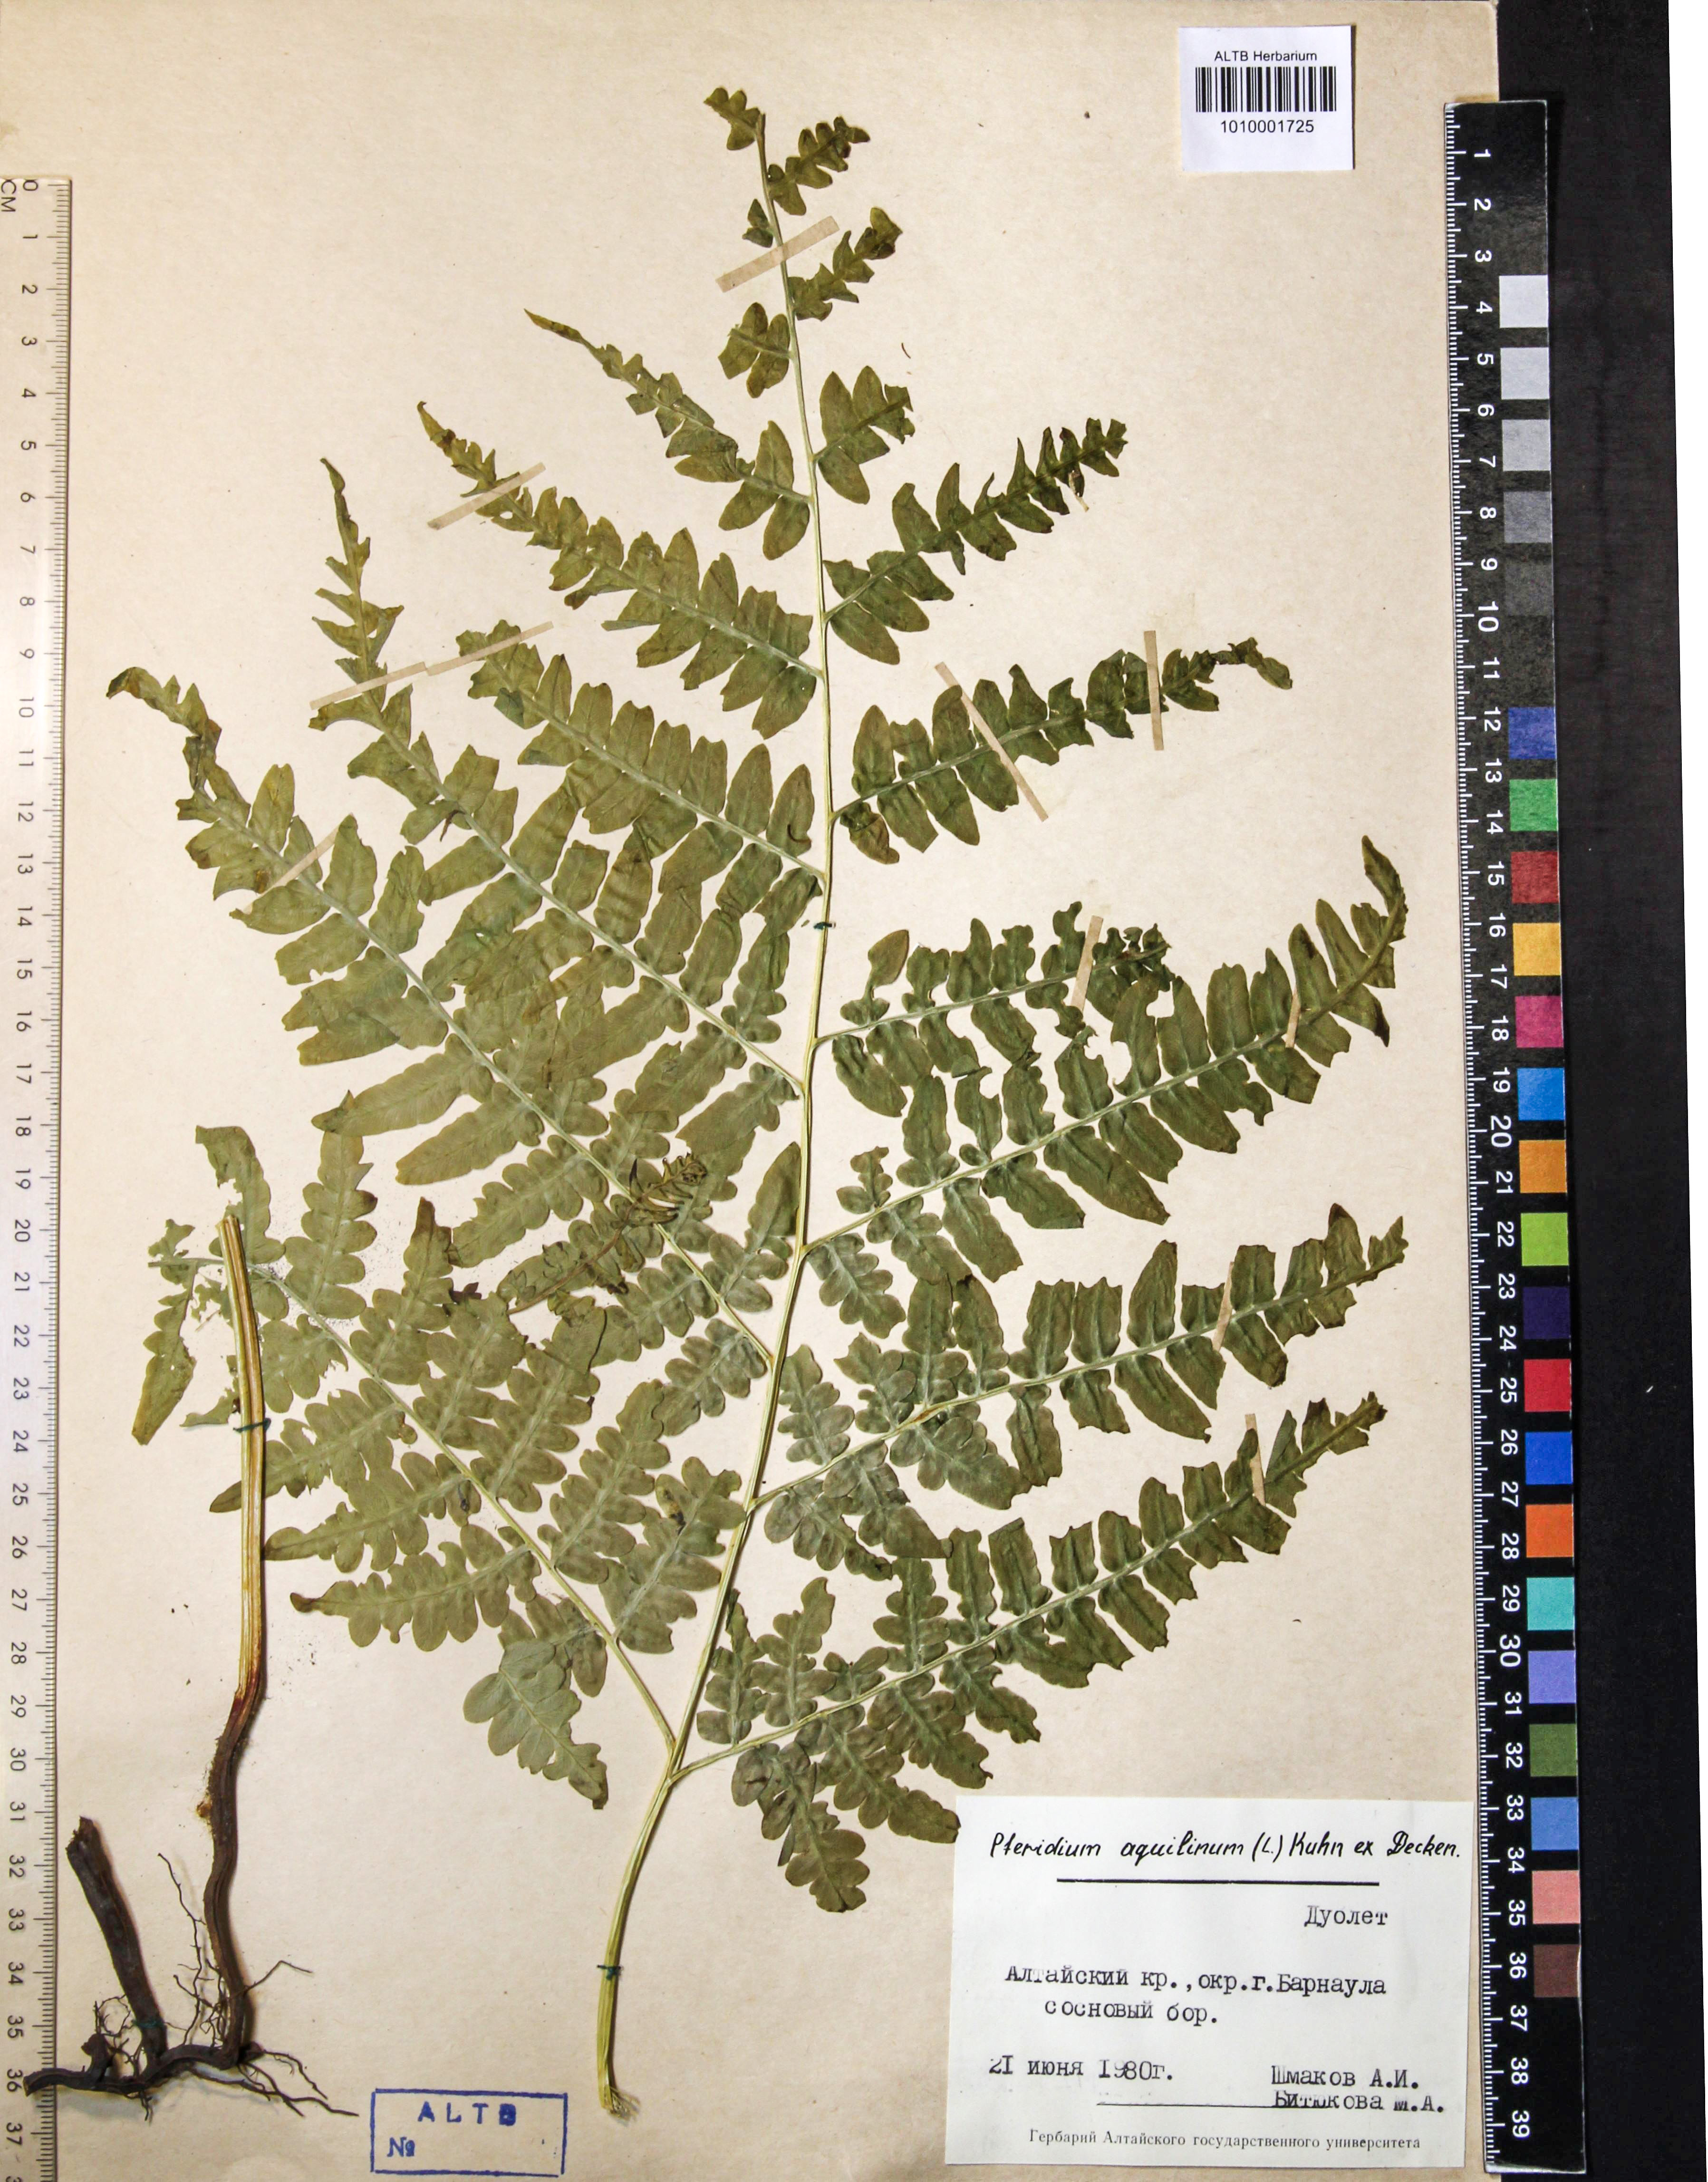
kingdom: Plantae
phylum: Tracheophyta
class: Polypodiopsida
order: Polypodiales
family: Dennstaedtiaceae
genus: Pteridium
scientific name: Pteridium aquilinum
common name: Bracken
